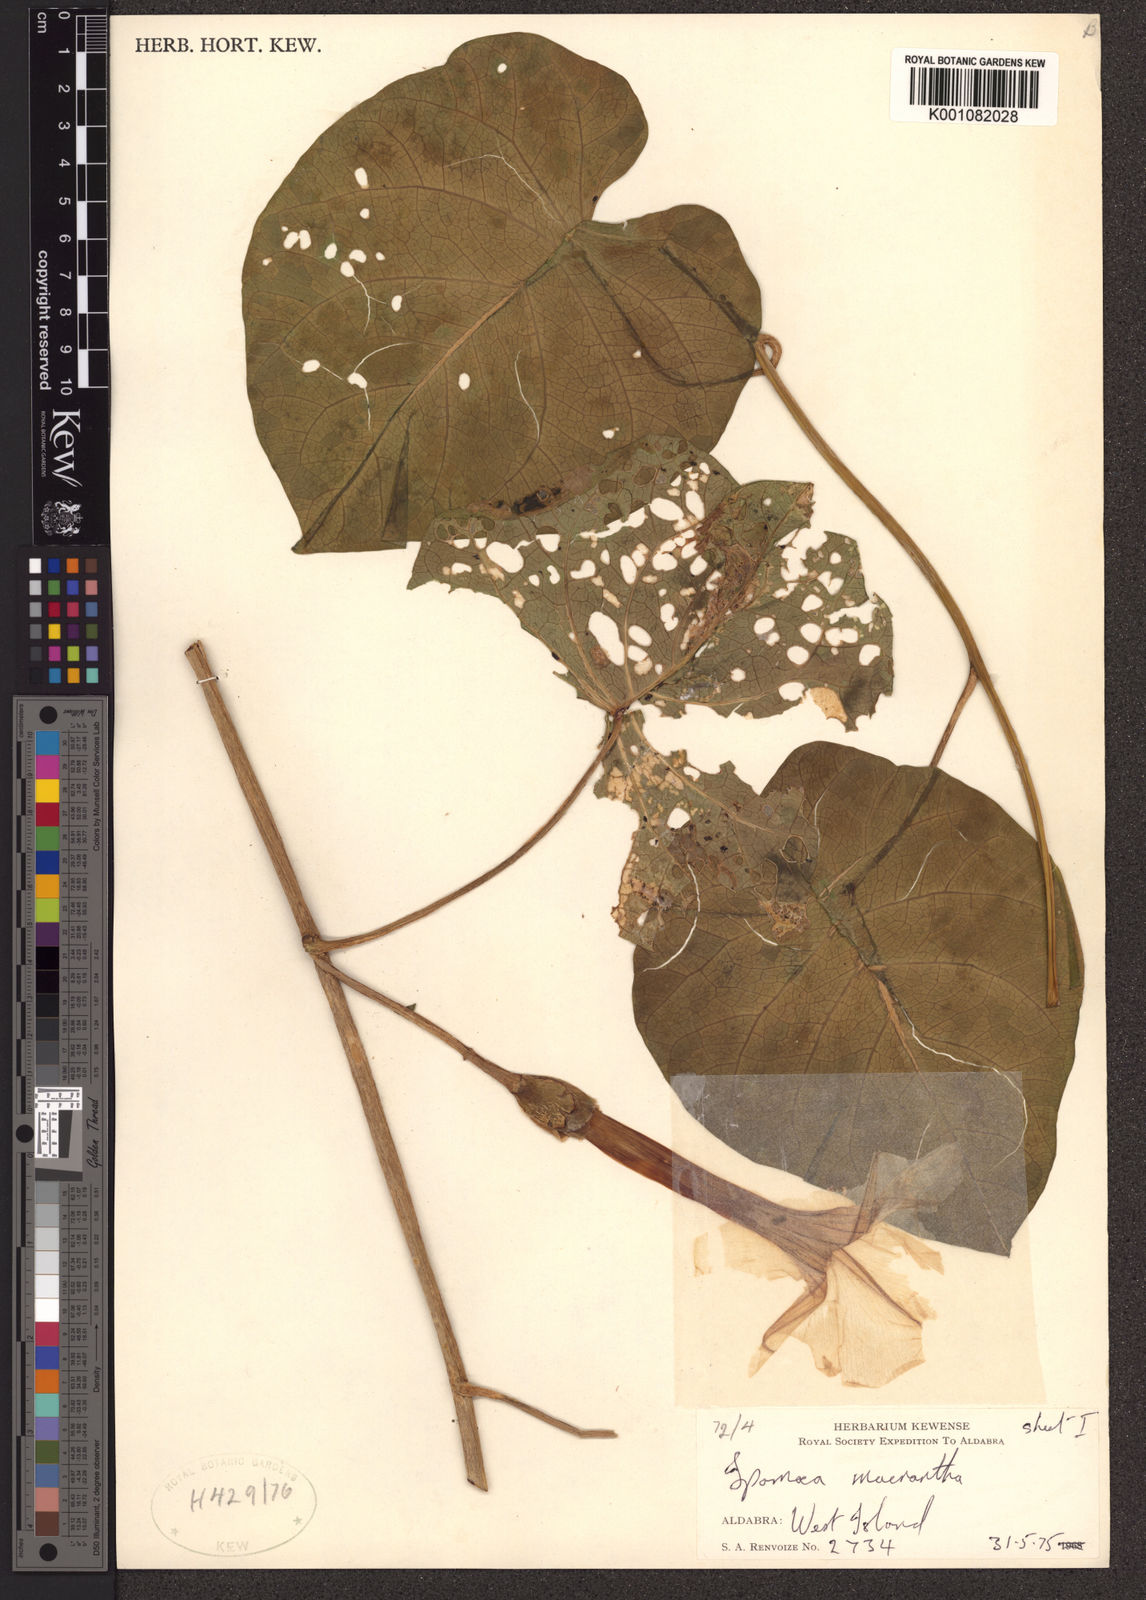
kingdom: Plantae
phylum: Tracheophyta
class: Magnoliopsida
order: Solanales
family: Convolvulaceae
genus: Ipomoea
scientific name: Ipomoea violacea
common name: Beach moonflower
